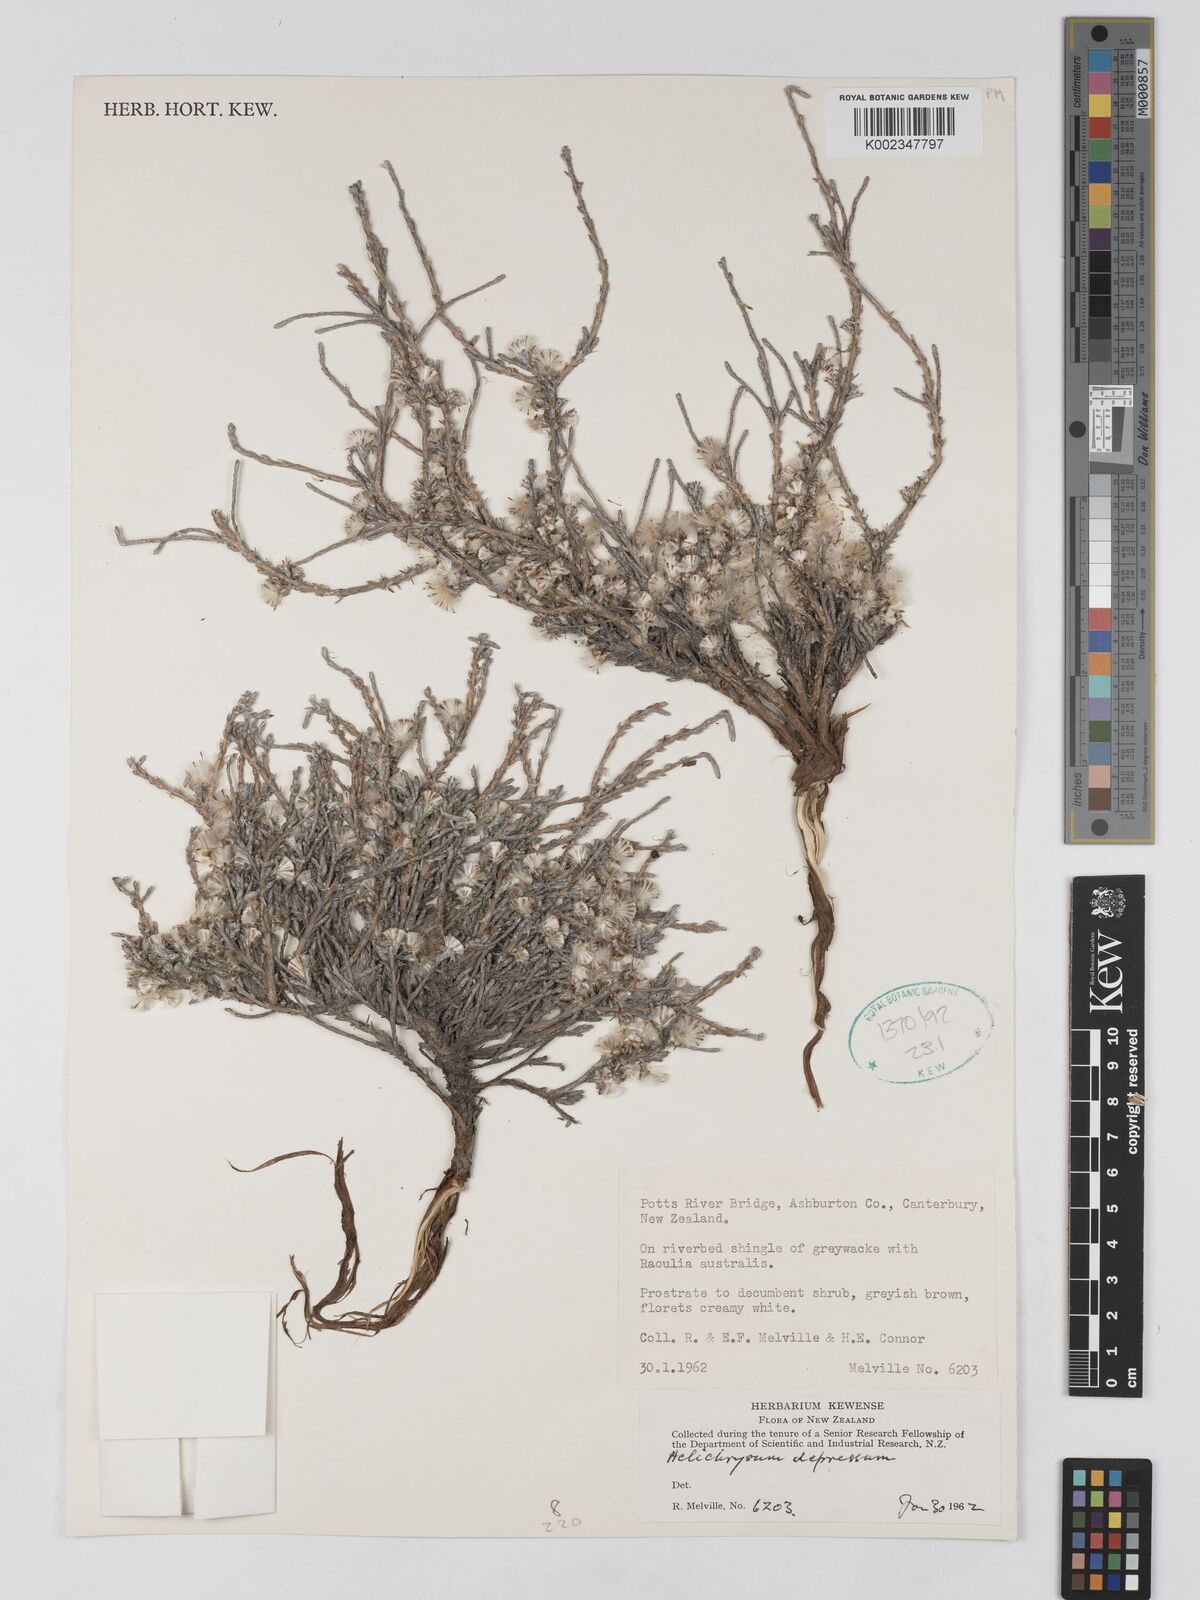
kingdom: Plantae
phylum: Tracheophyta
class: Magnoliopsida
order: Asterales
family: Asteraceae
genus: Ozothamnus
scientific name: Ozothamnus depressus
